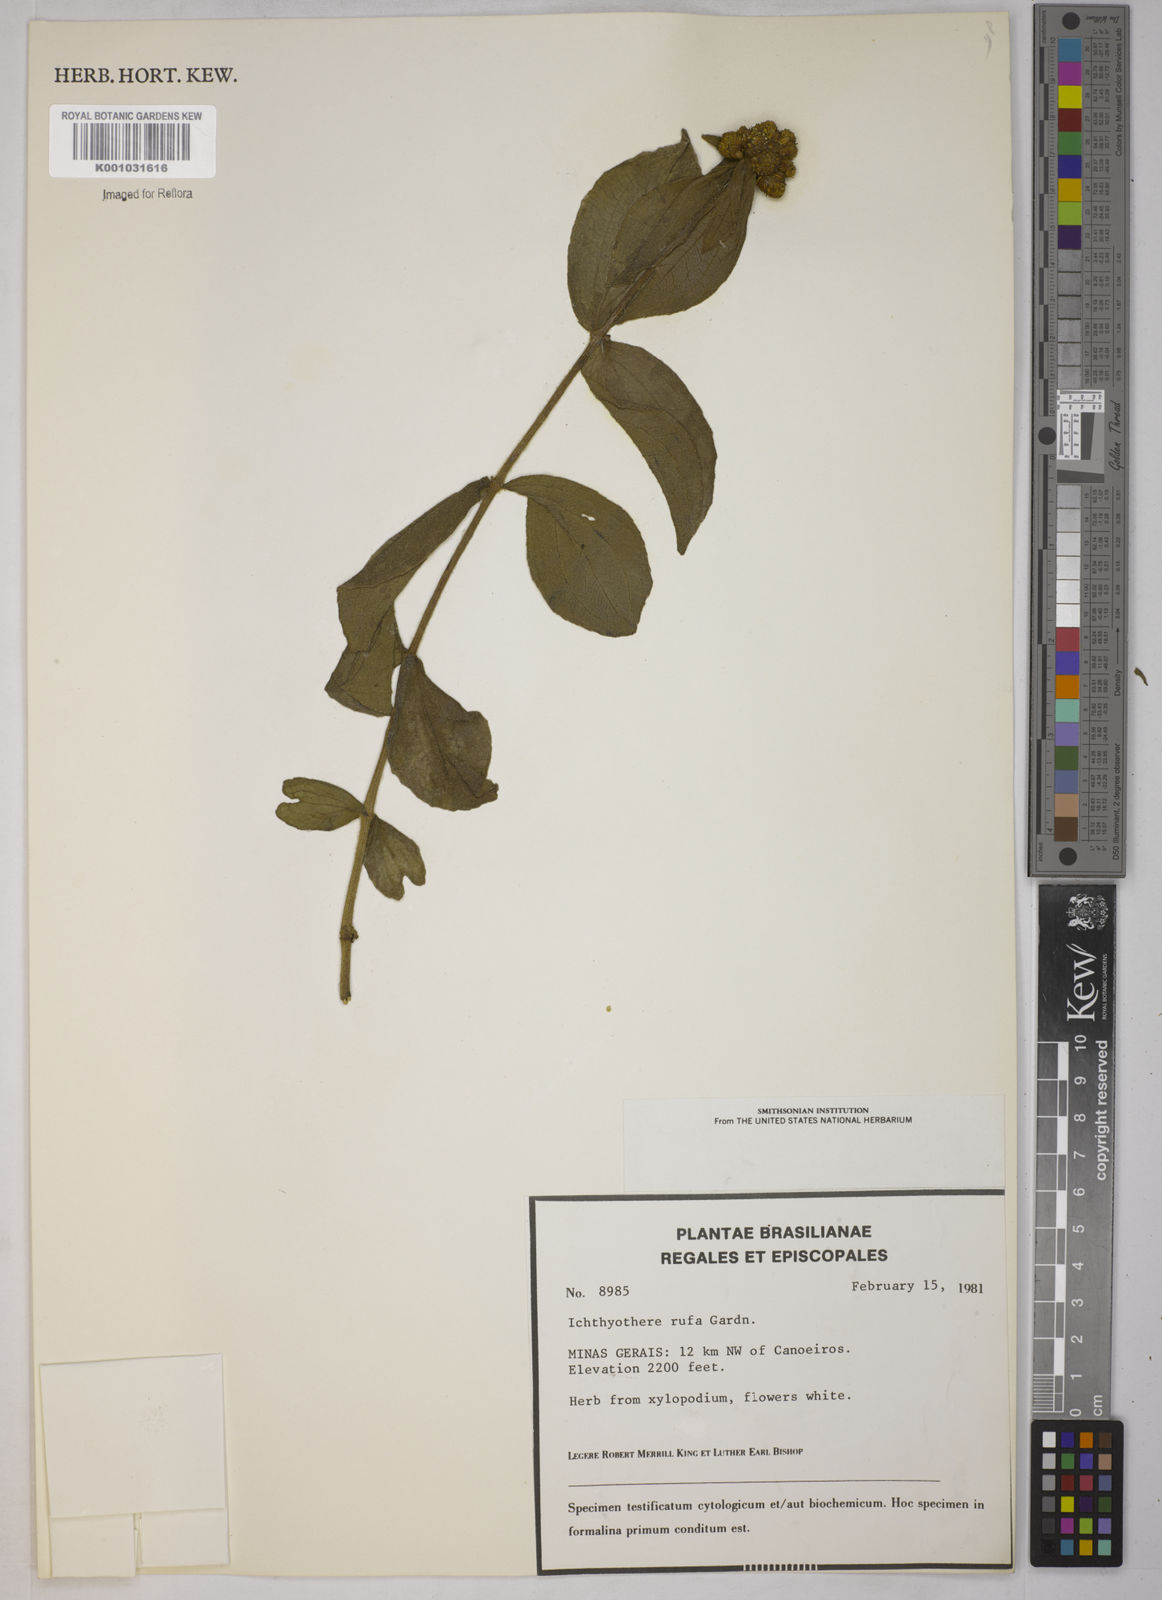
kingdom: Plantae
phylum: Tracheophyta
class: Magnoliopsida
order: Asterales
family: Asteraceae
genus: Ichthyothere
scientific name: Ichthyothere rufa
